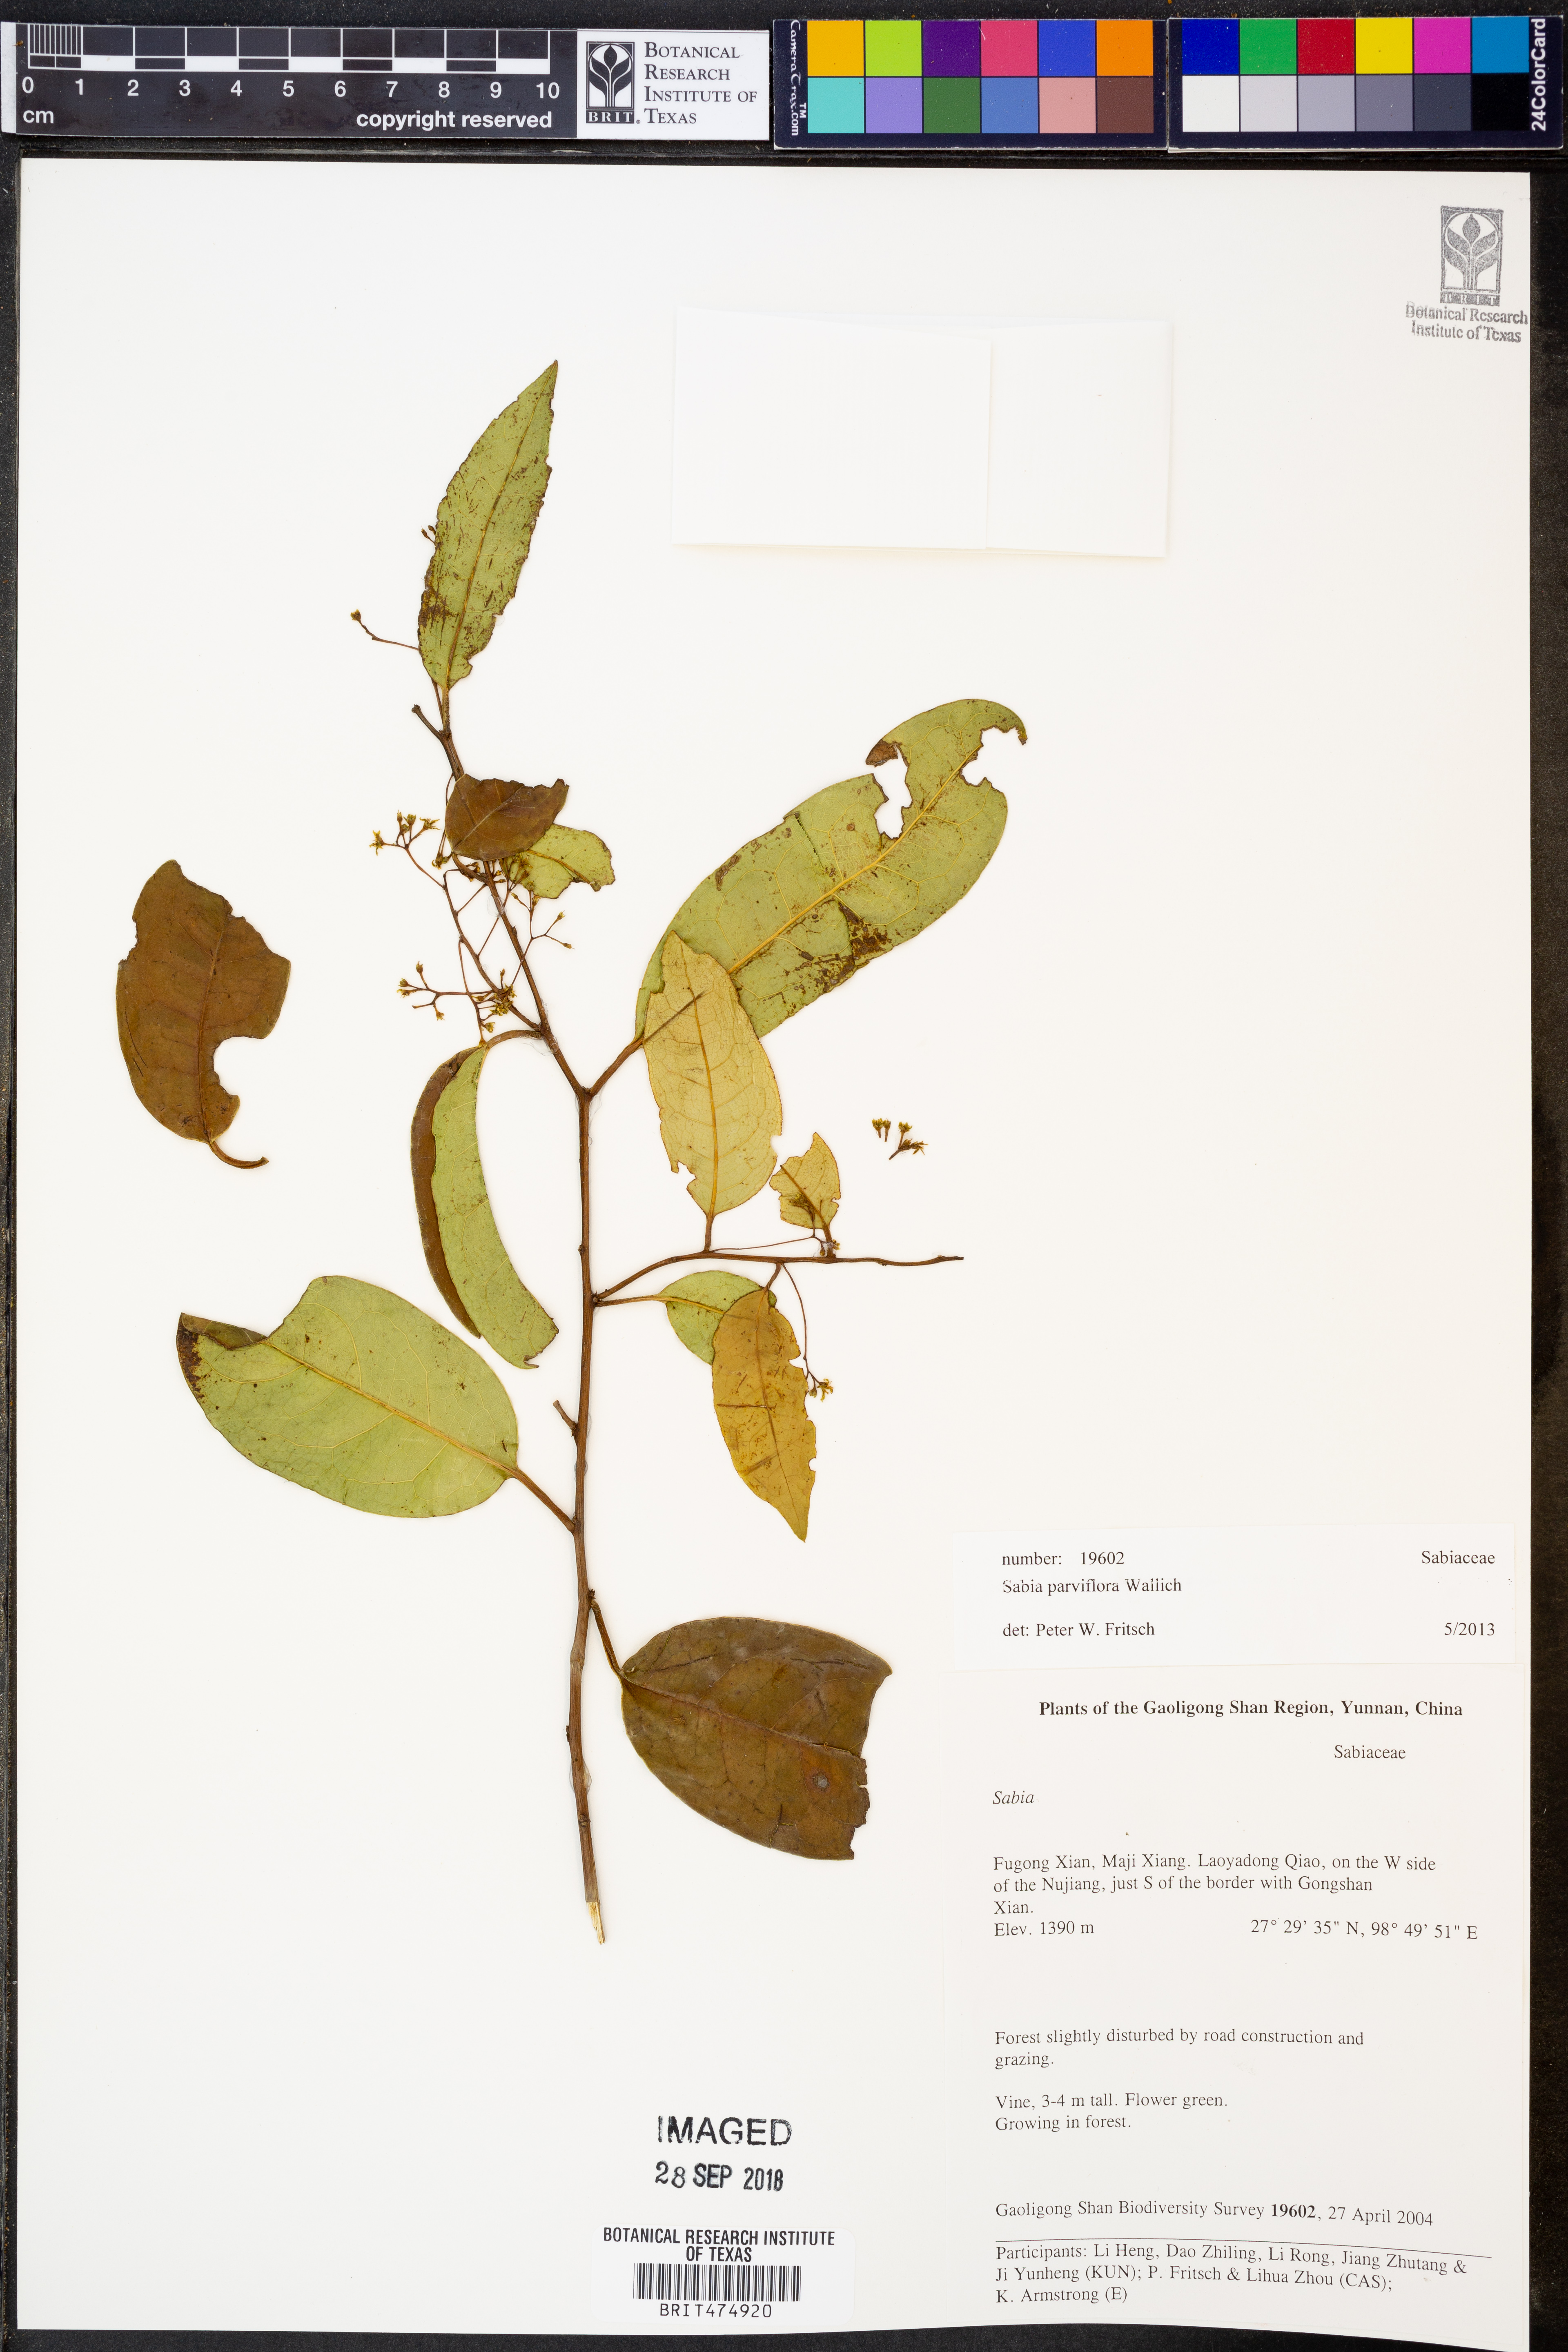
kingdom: Plantae
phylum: Tracheophyta
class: Magnoliopsida
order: Proteales
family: Sabiaceae
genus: Sabia
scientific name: Sabia parviflora
